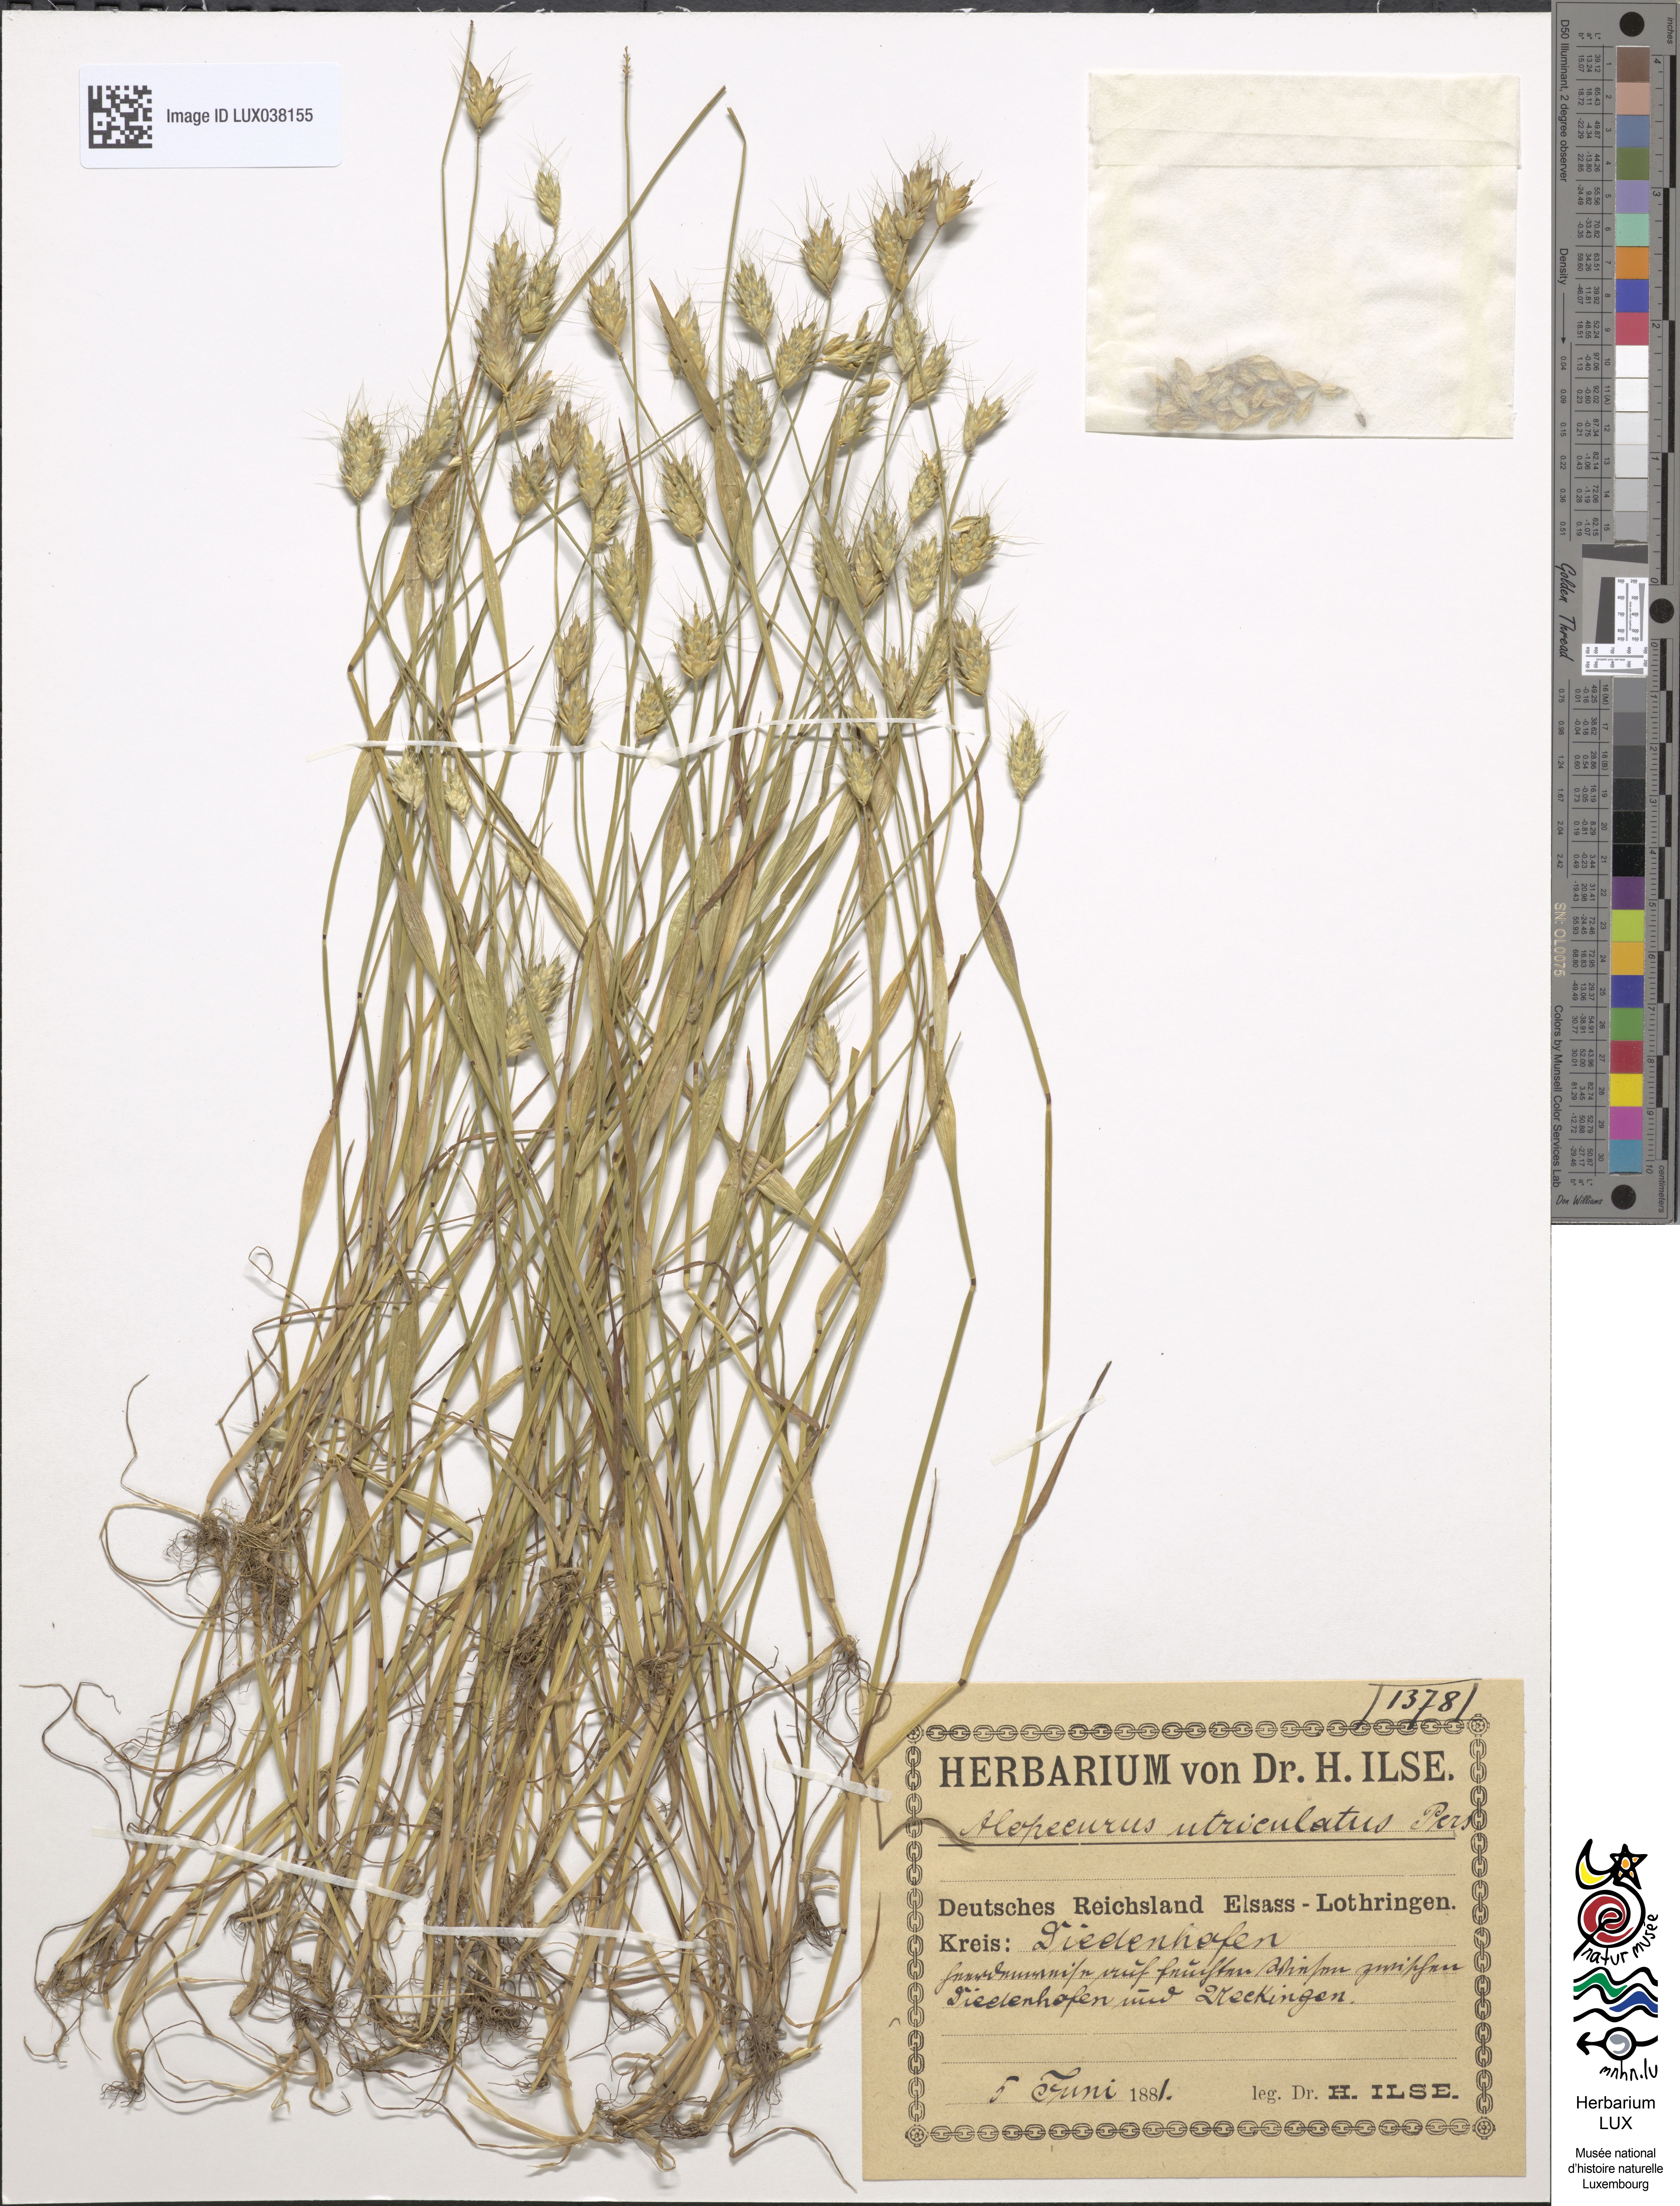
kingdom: Plantae
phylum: Tracheophyta
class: Liliopsida
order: Poales
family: Poaceae
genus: Alopecurus
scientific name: Alopecurus rendlei
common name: Rendle's meadow foxtail
